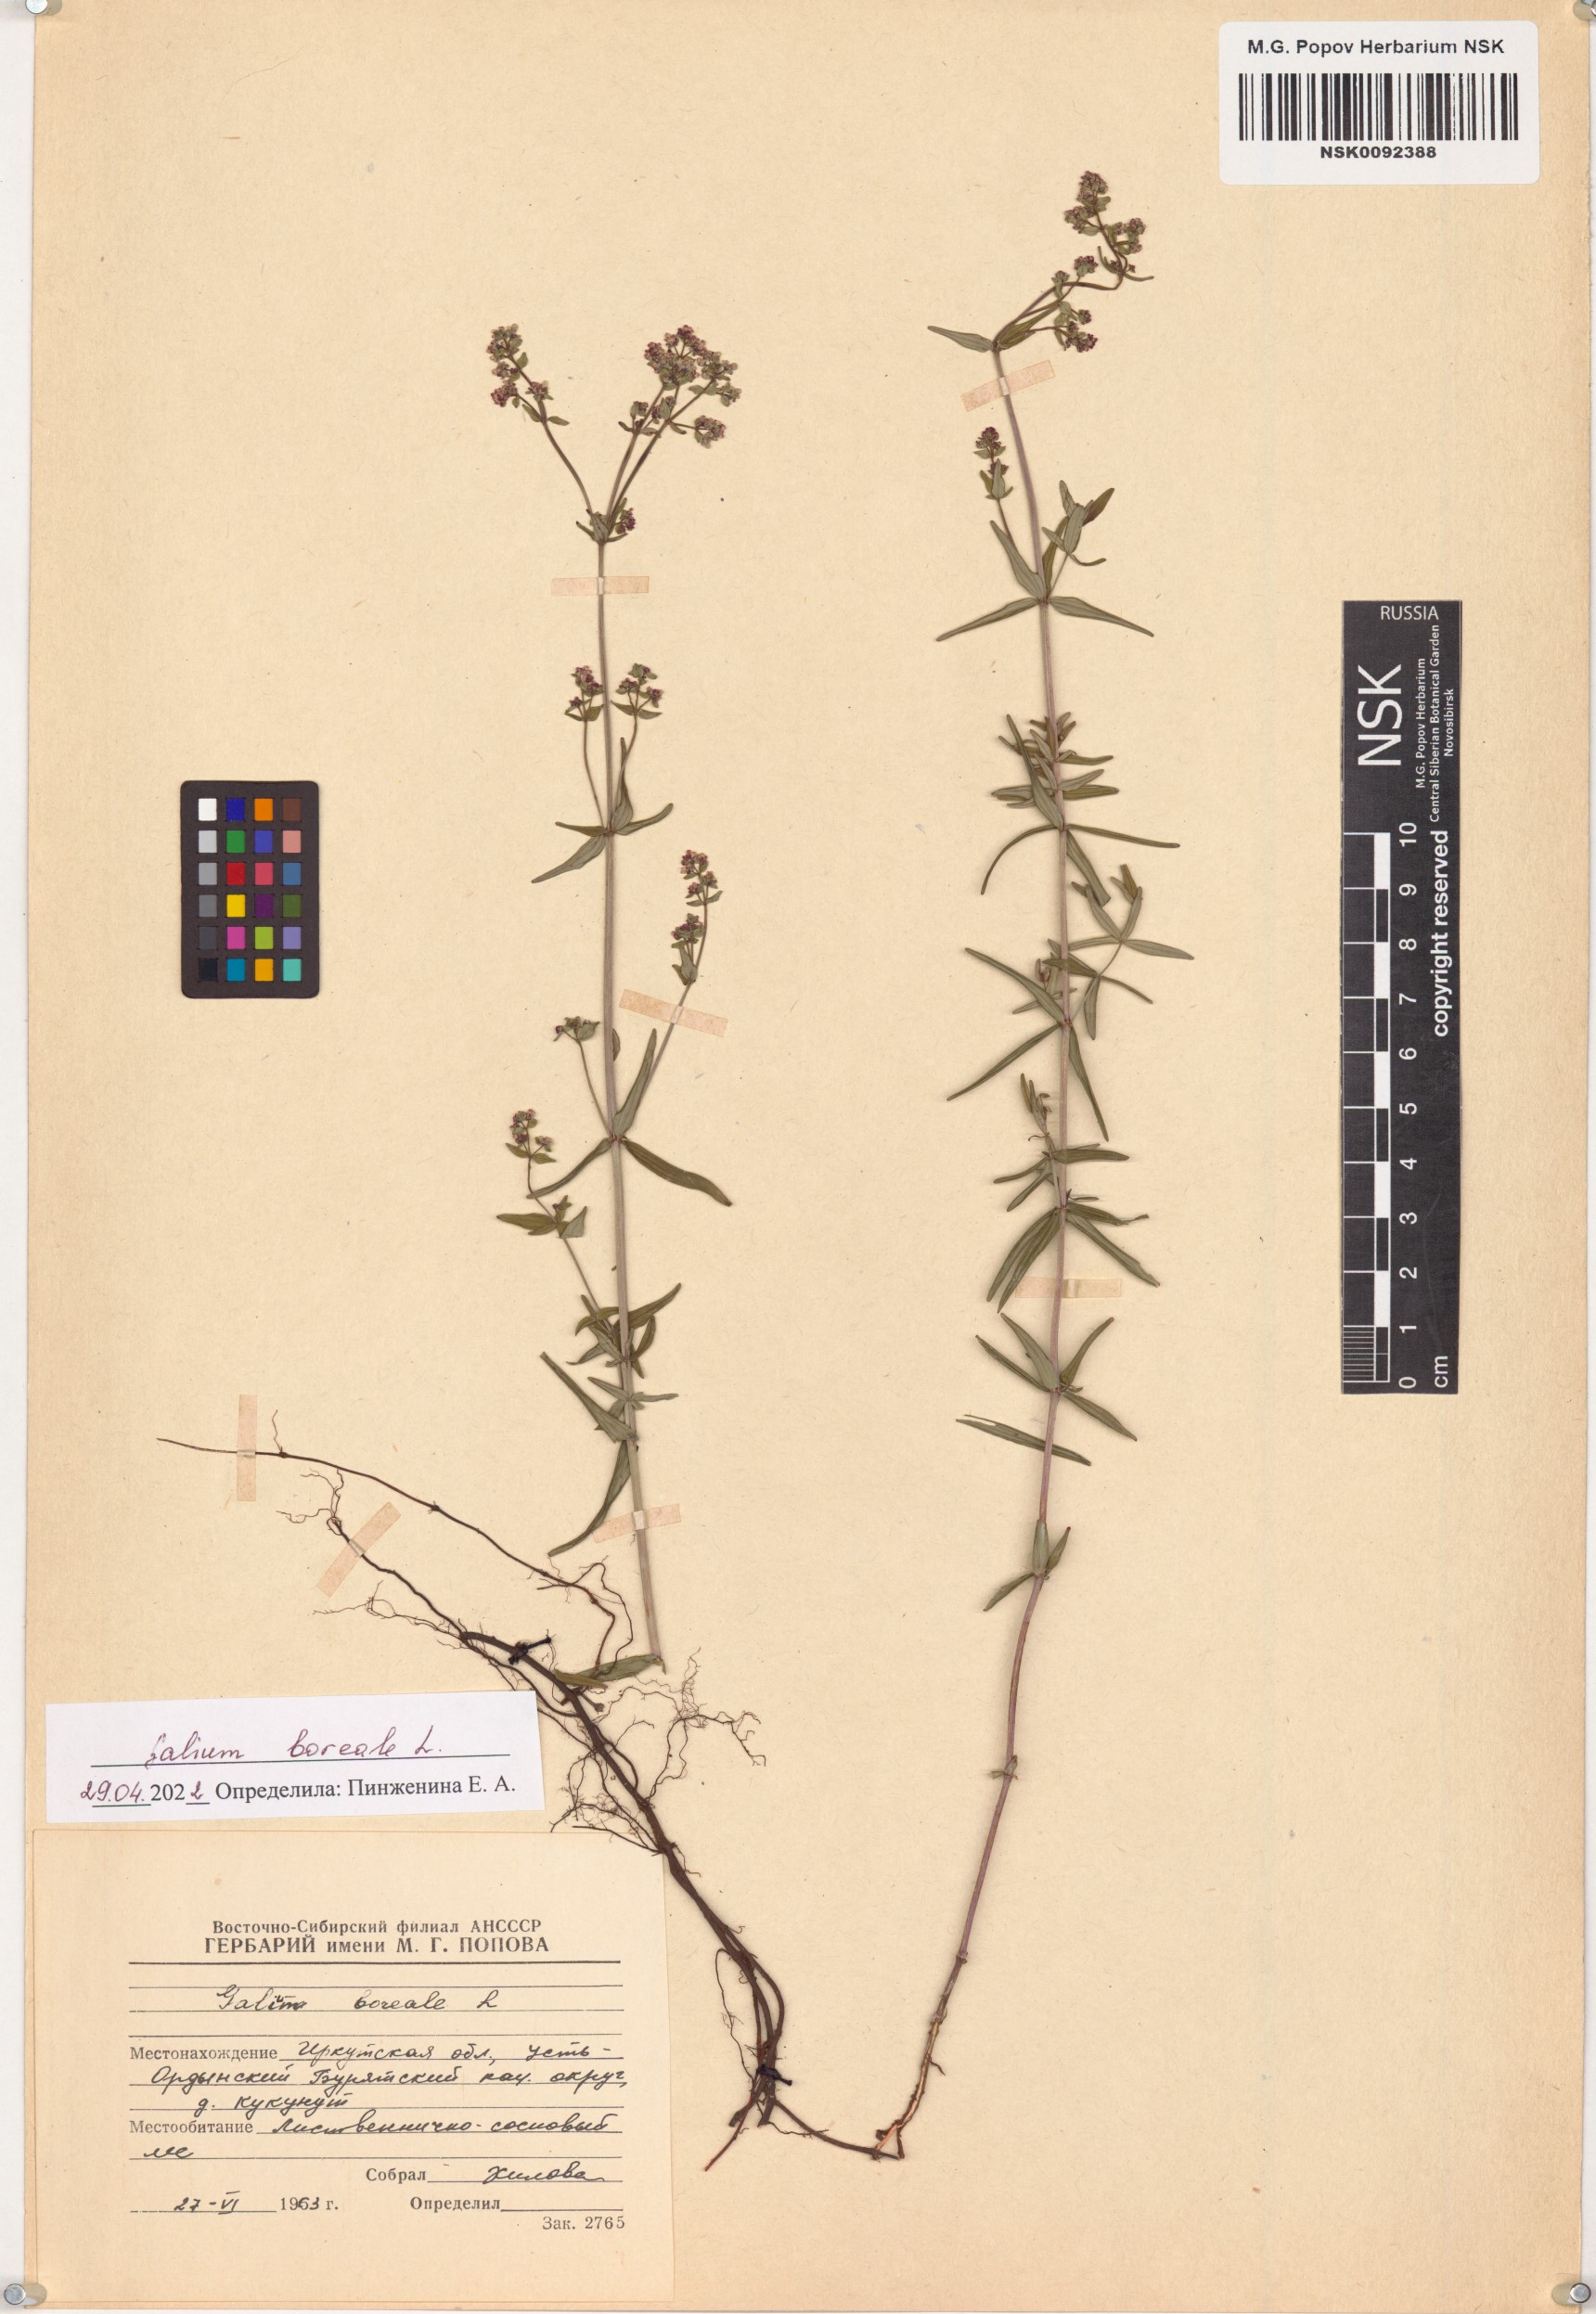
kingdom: Plantae
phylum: Tracheophyta
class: Magnoliopsida
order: Gentianales
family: Rubiaceae
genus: Galium
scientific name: Galium boreale
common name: Northern bedstraw
